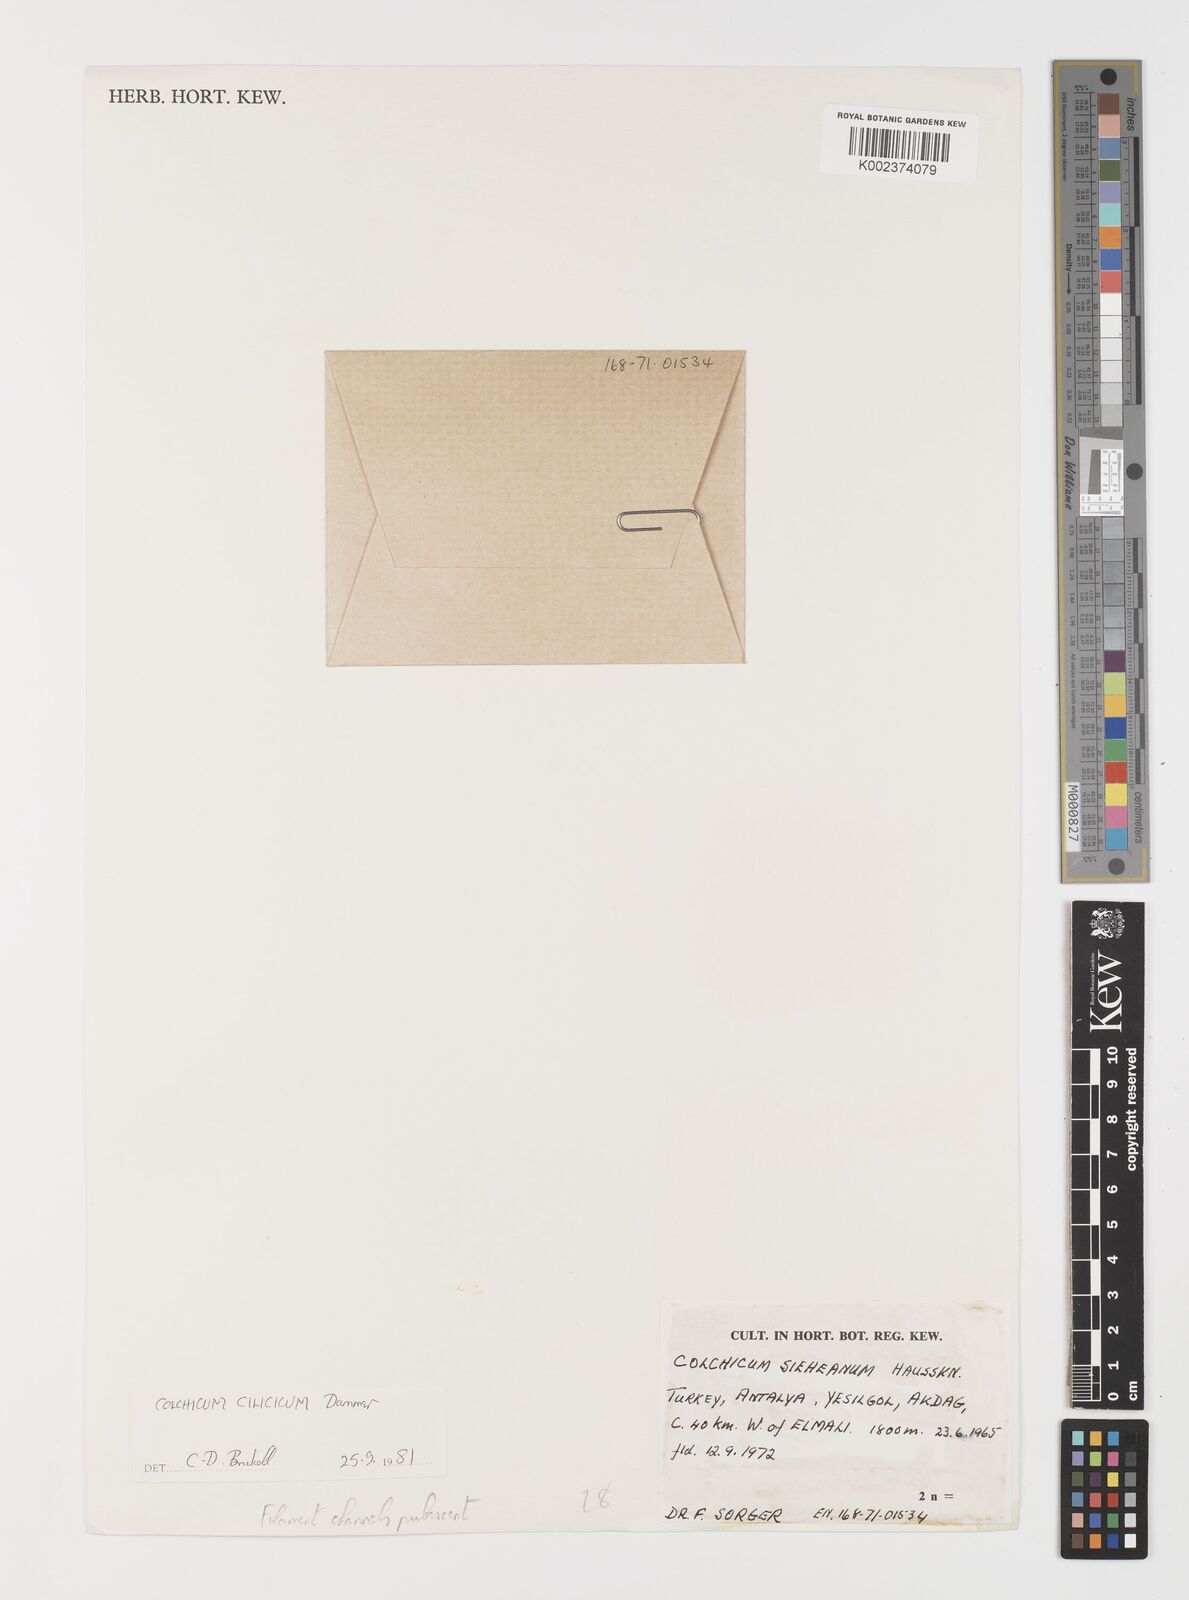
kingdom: Plantae
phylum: Tracheophyta
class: Liliopsida
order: Liliales
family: Colchicaceae
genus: Colchicum
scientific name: Colchicum cilicicum
